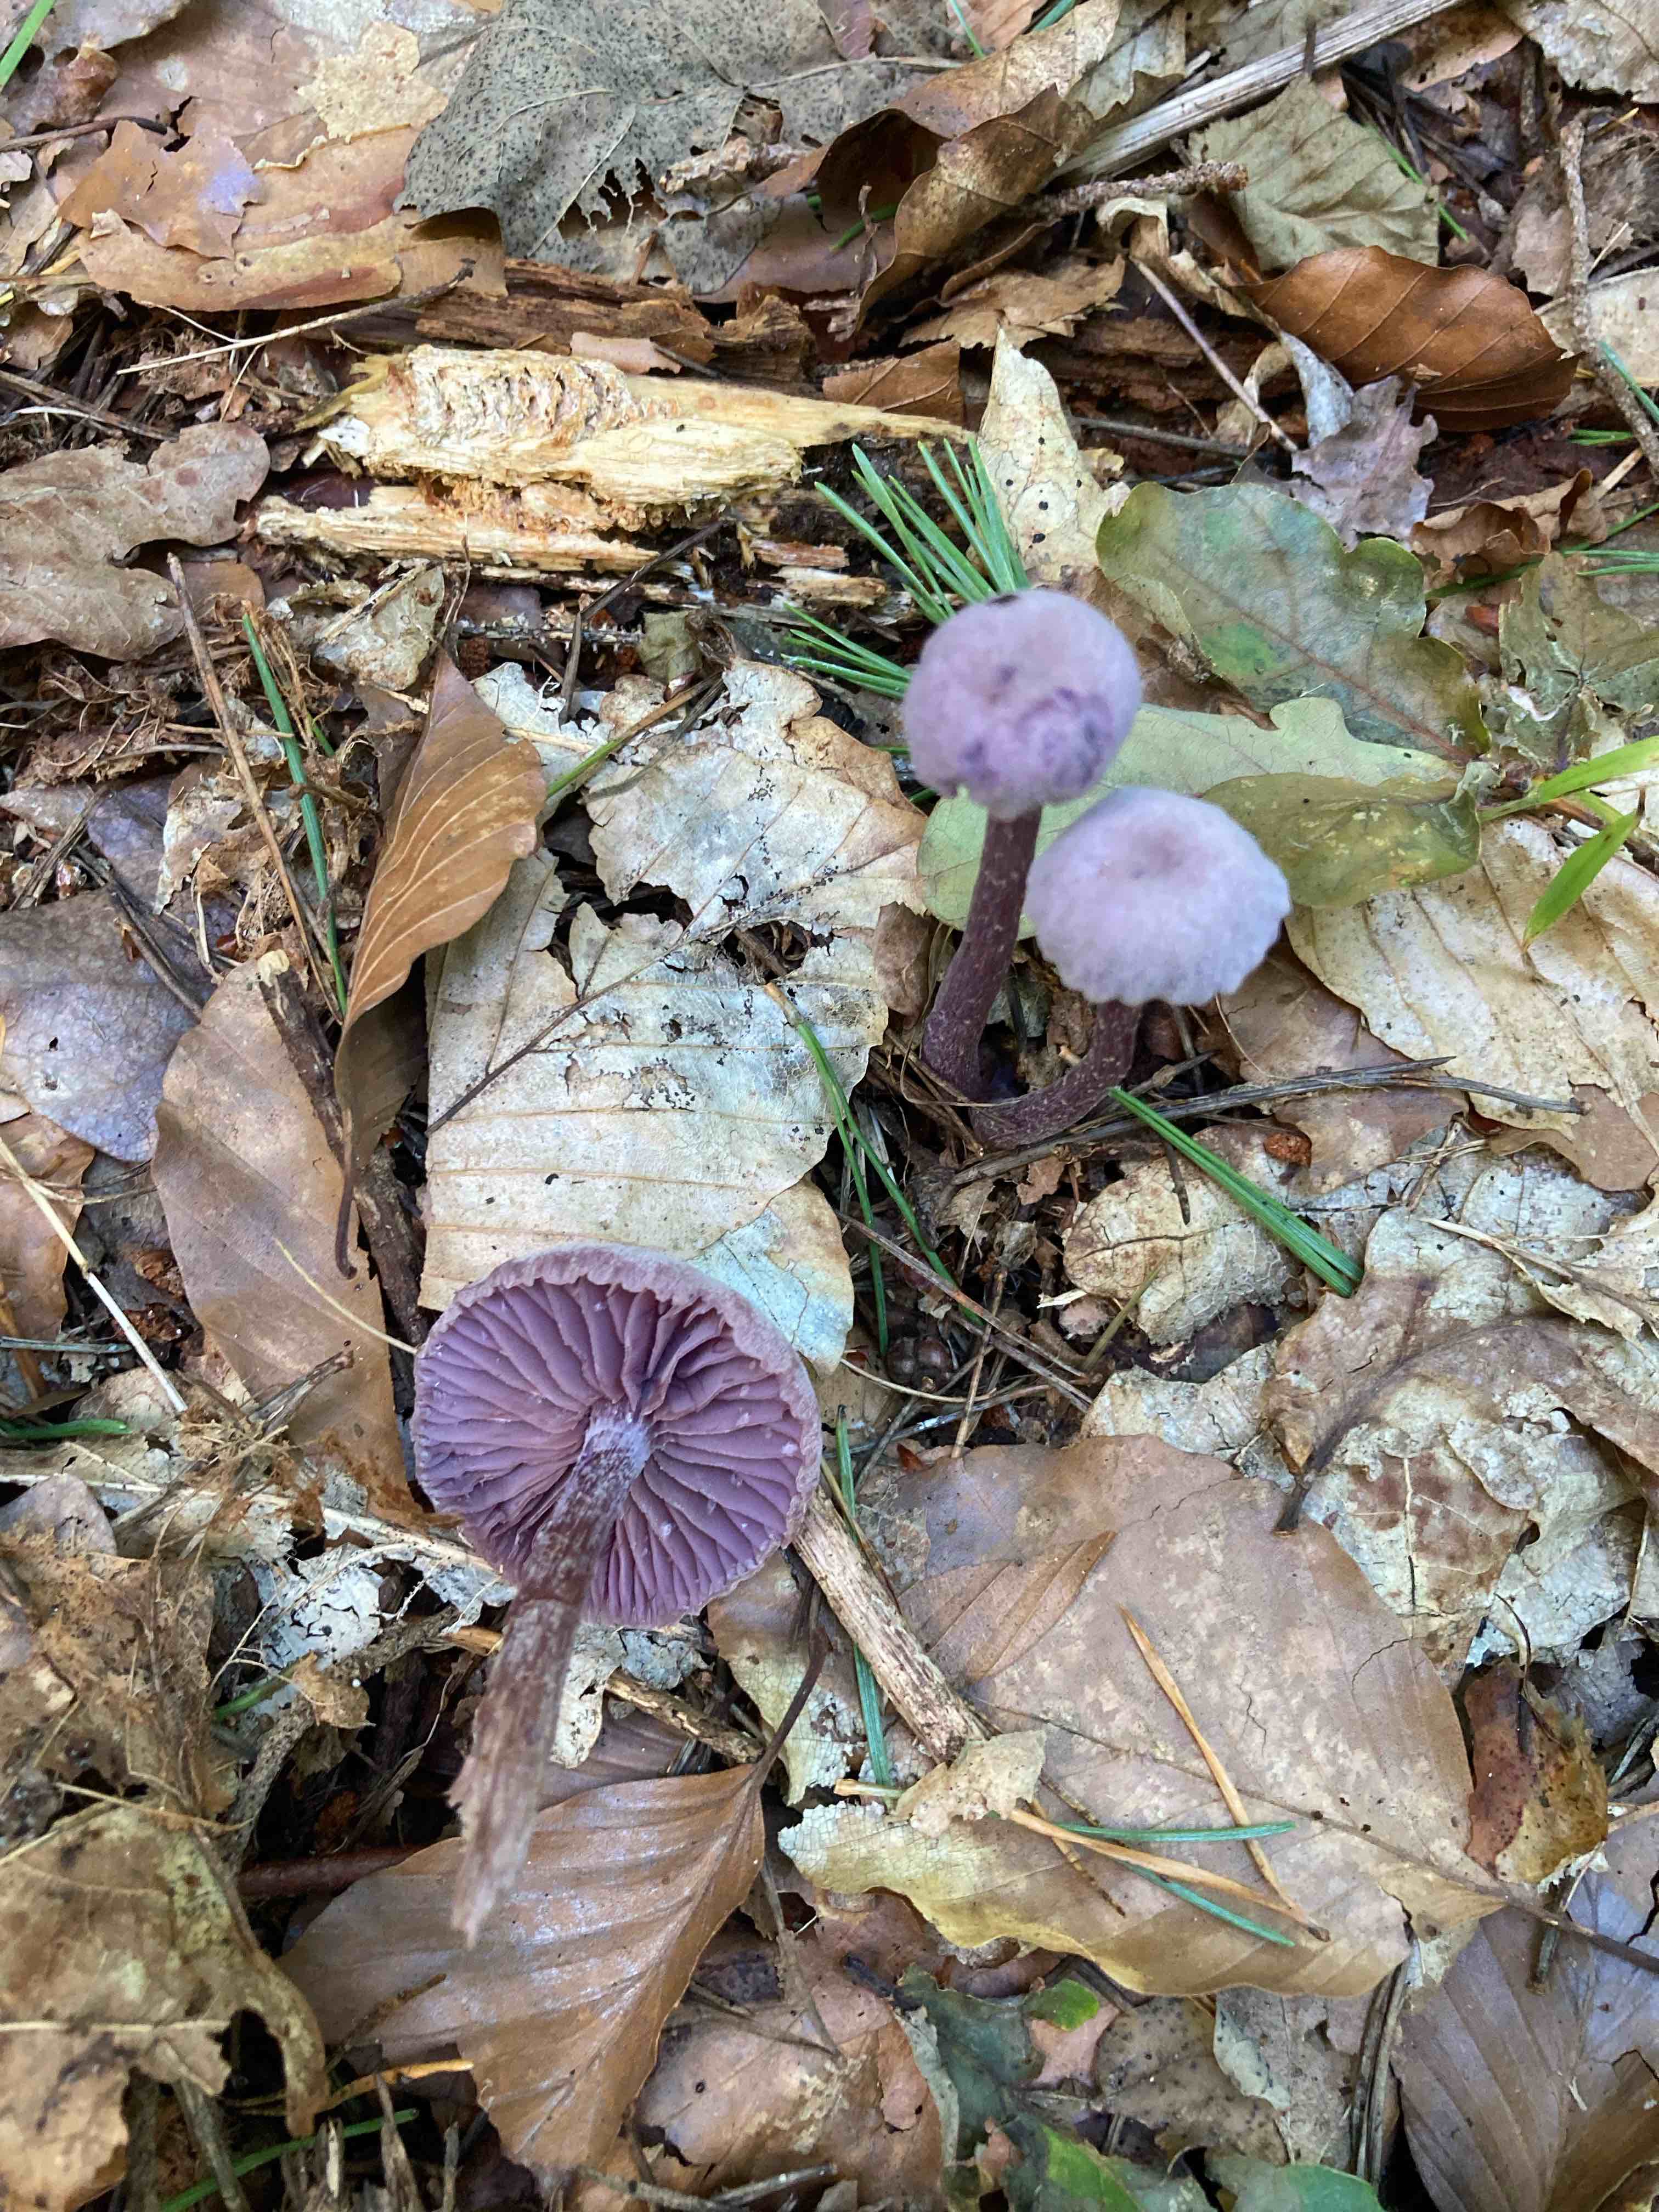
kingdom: Fungi
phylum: Basidiomycota
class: Agaricomycetes
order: Agaricales
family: Hydnangiaceae
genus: Laccaria
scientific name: Laccaria amethystina
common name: violet ametysthat
